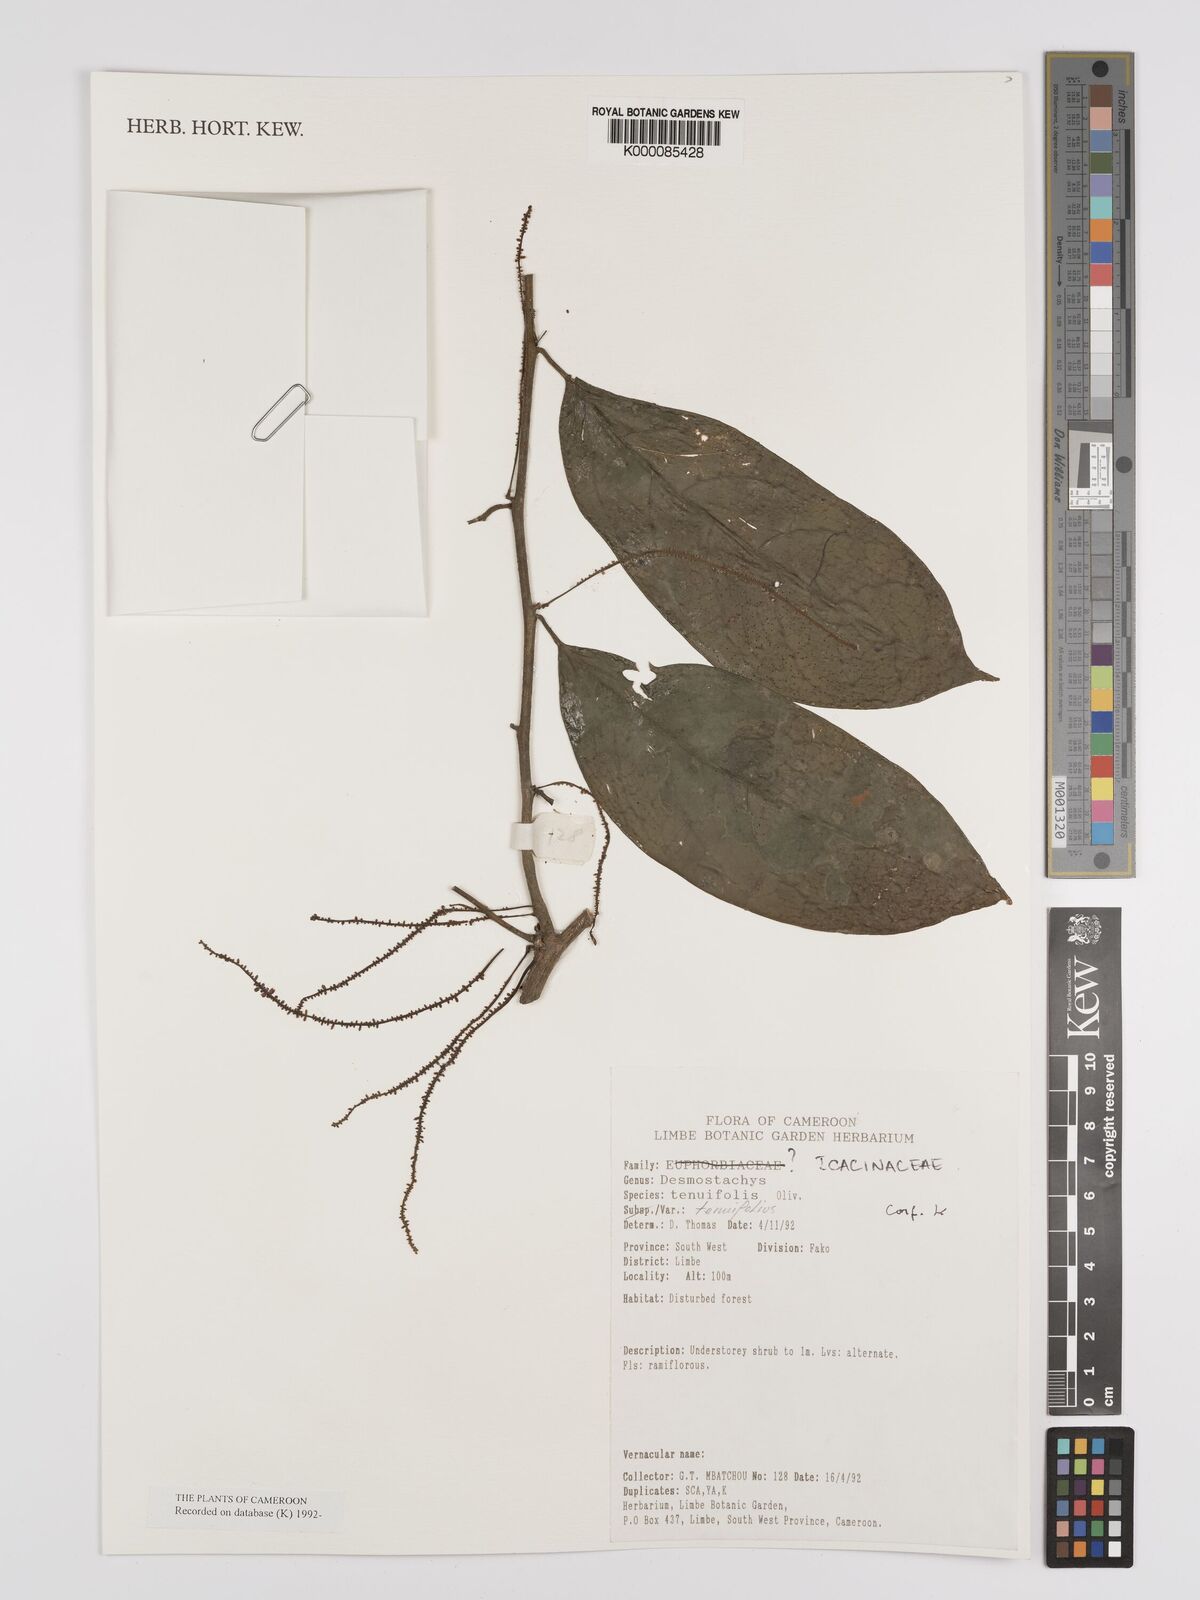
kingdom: Plantae
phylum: Tracheophyta
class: Magnoliopsida
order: Icacinales
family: Icacinaceae
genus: Vadensea
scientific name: Vadensea tenuifolia
